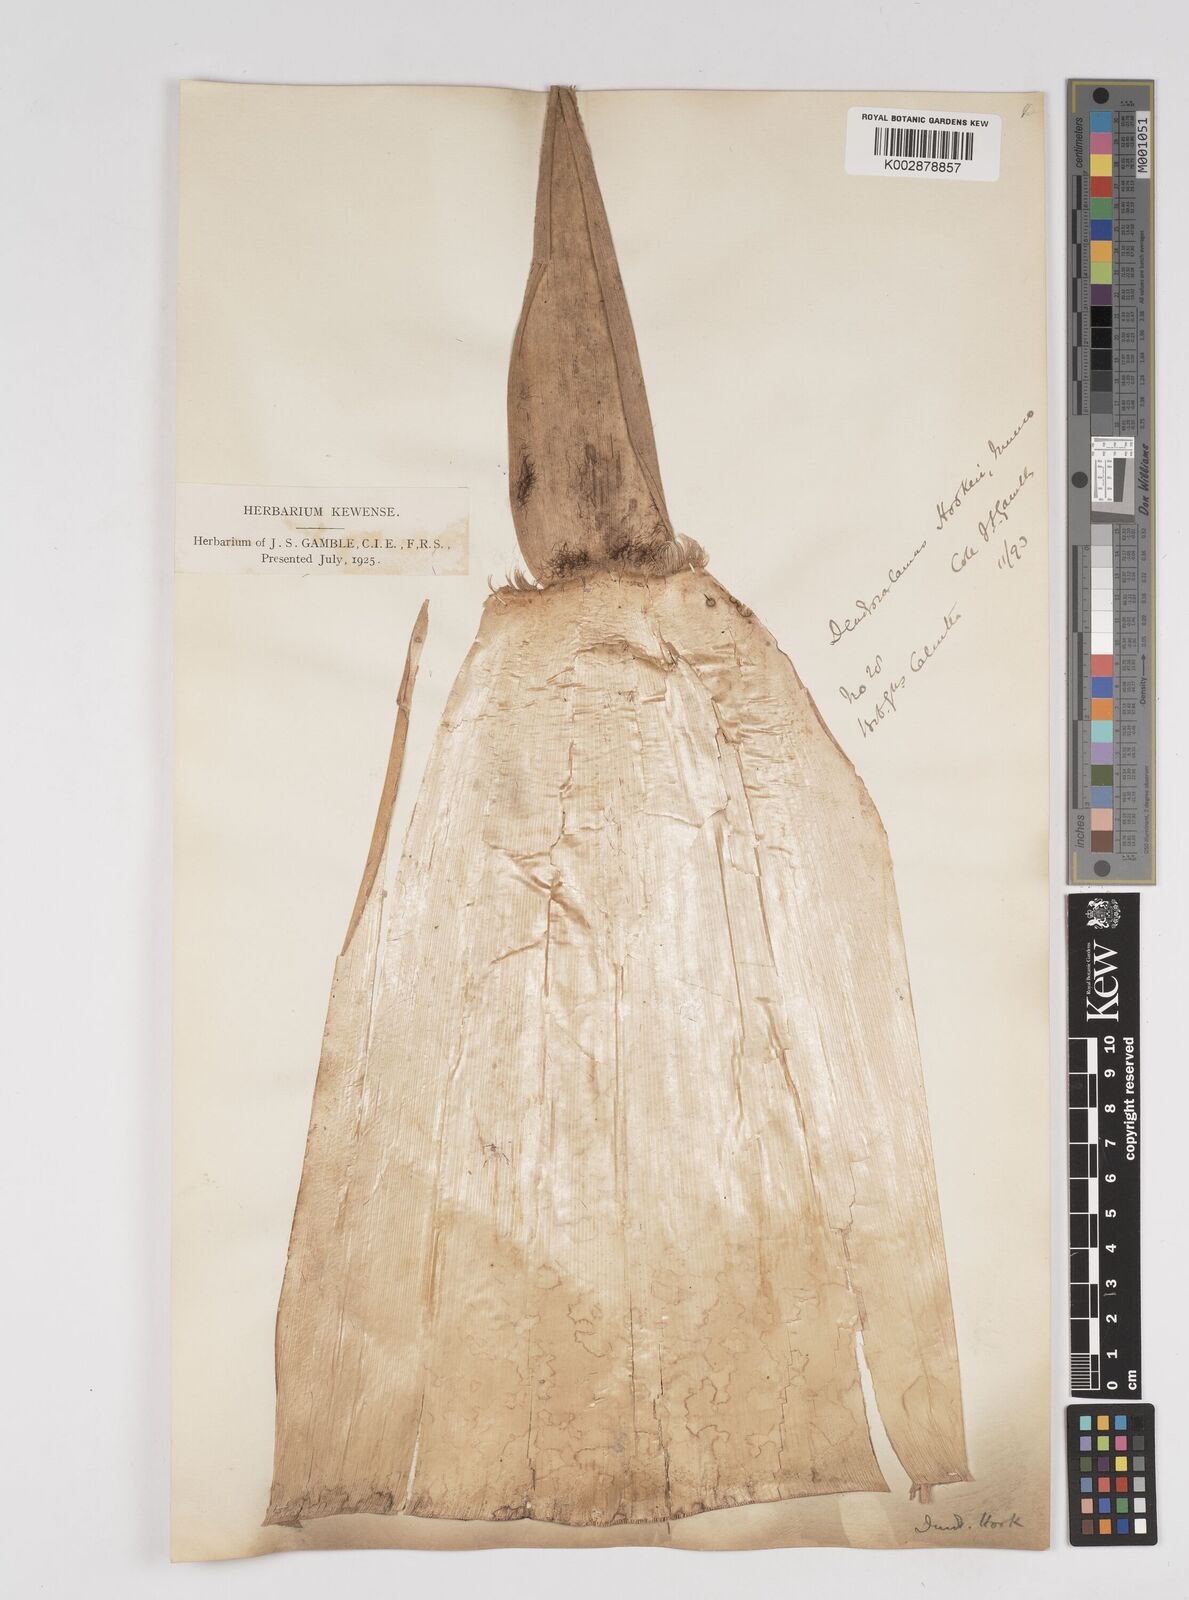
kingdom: Plantae
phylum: Tracheophyta
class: Liliopsida
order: Poales
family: Poaceae
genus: Dendrocalamus
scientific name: Dendrocalamus hookeri
